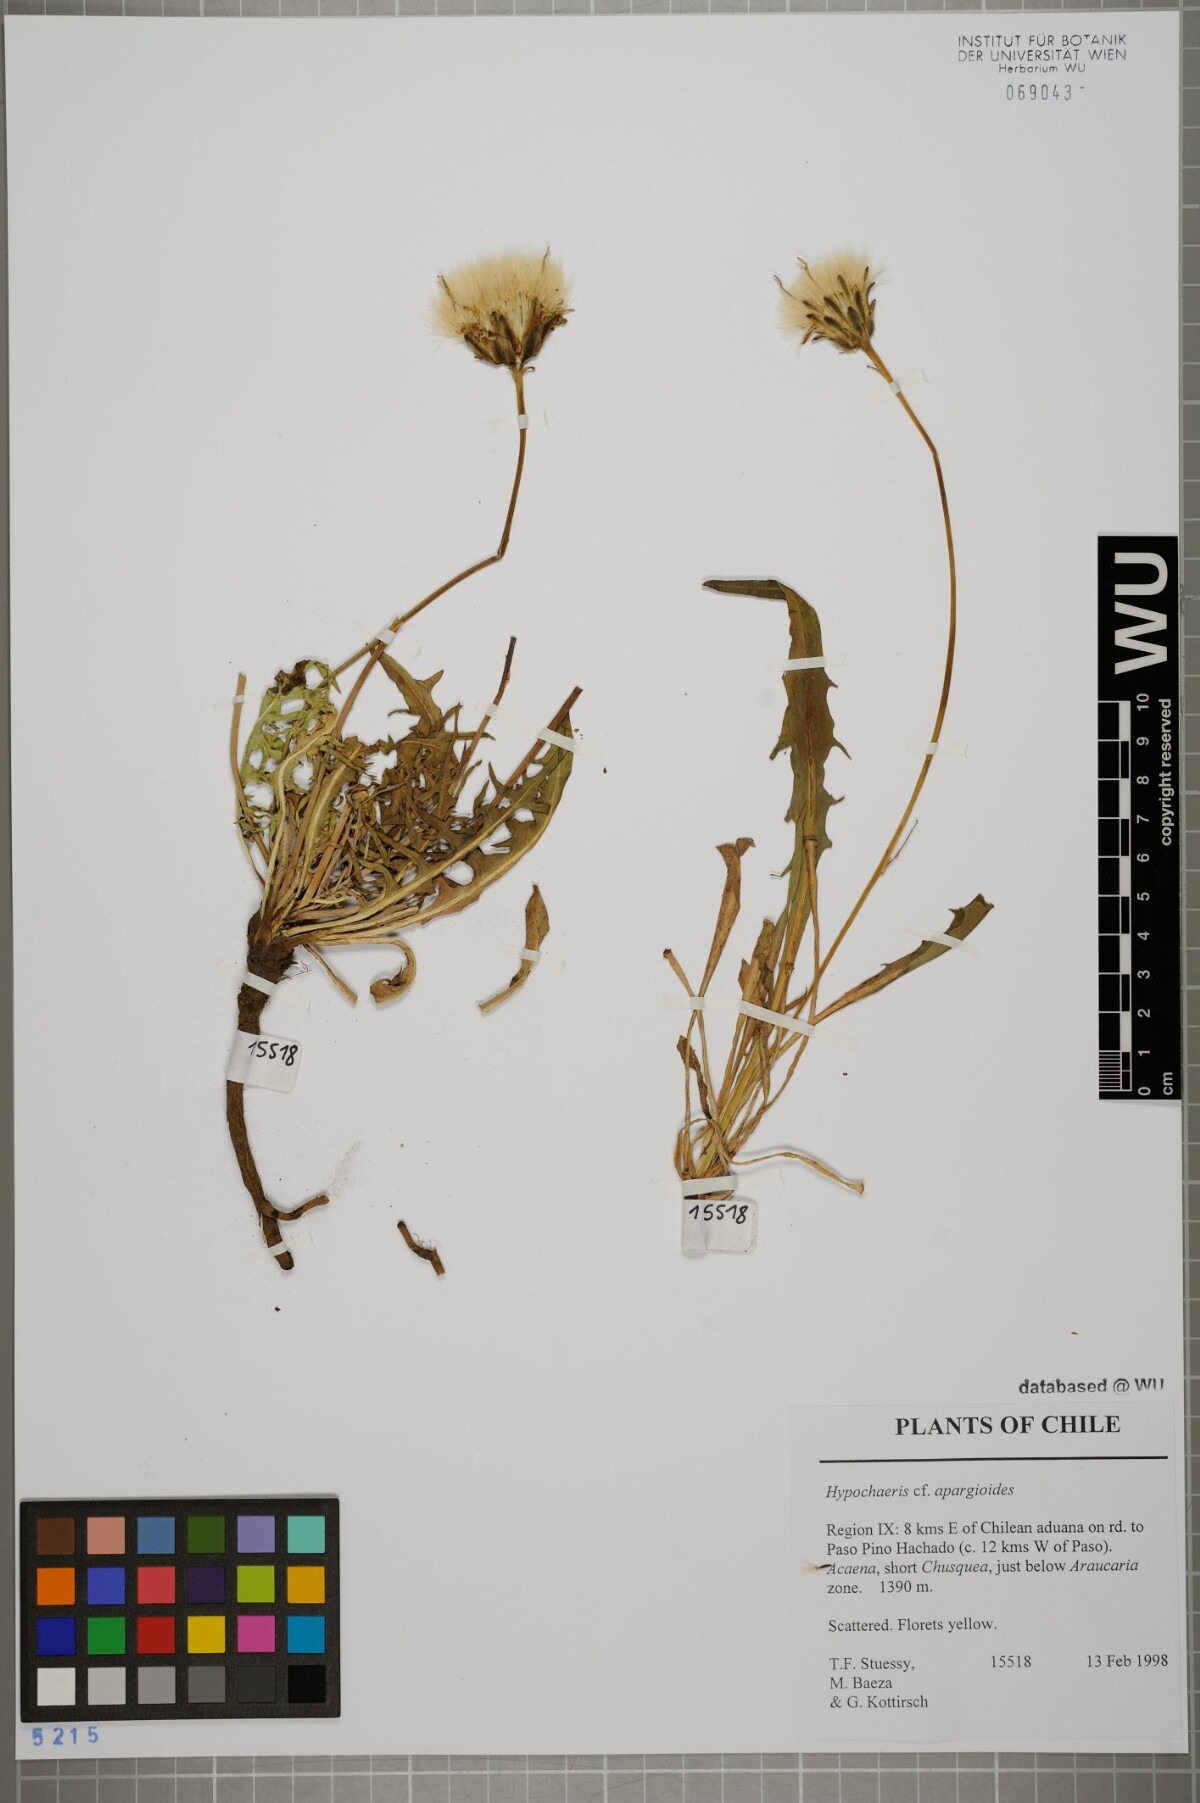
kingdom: Plantae
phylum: Tracheophyta
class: Magnoliopsida
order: Asterales
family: Asteraceae
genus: Hypochaeris
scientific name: Hypochaeris apargioides
